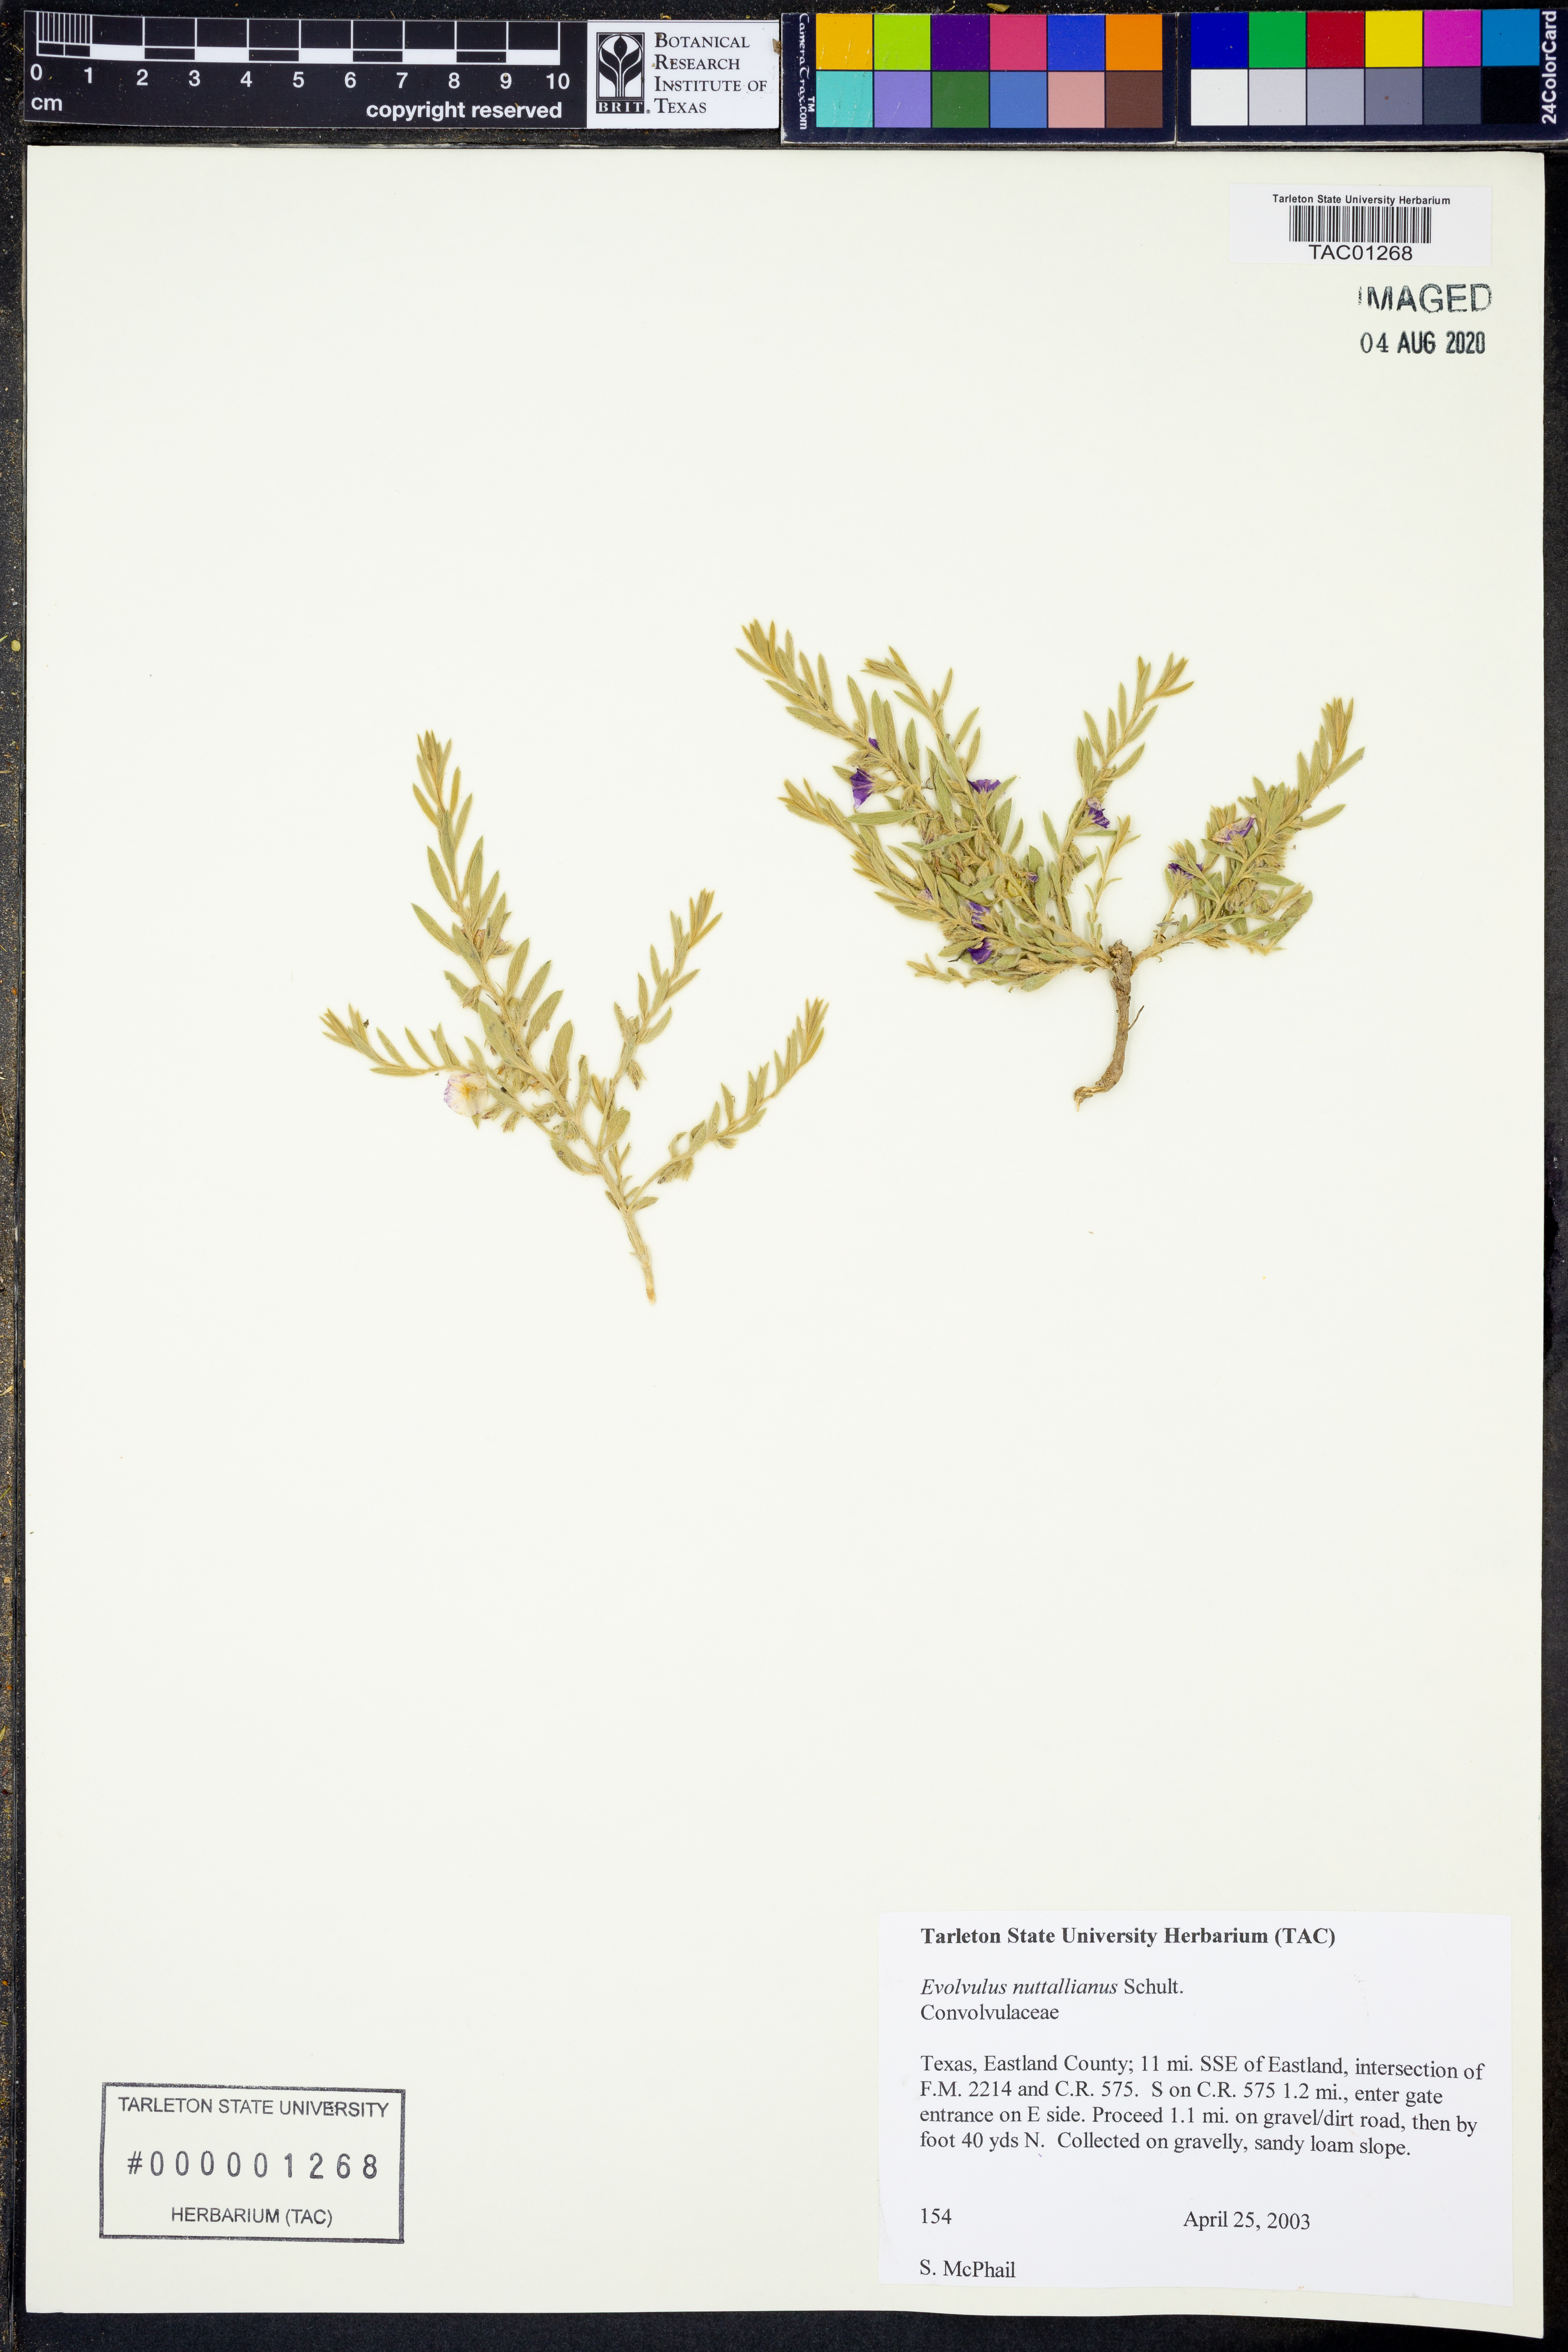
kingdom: Plantae
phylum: Tracheophyta
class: Magnoliopsida
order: Solanales
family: Convolvulaceae
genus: Evolvulus
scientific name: Evolvulus nuttallianus
